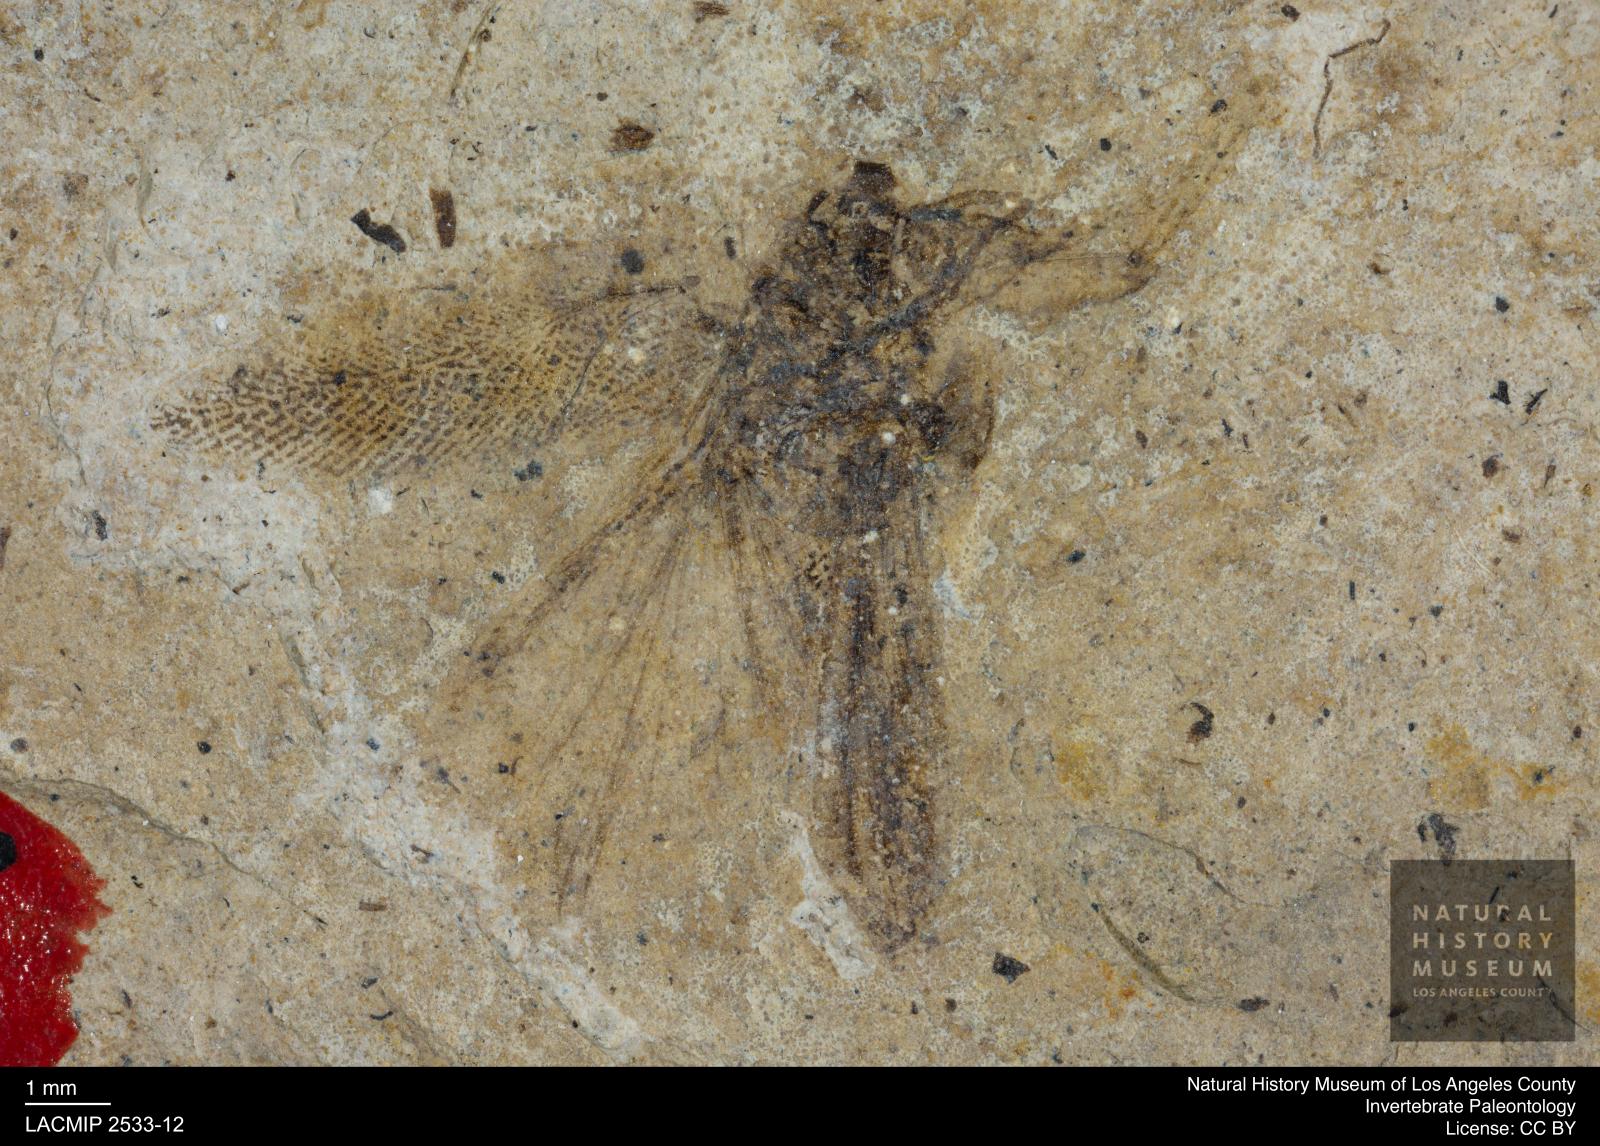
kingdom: Animalia
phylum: Arthropoda
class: Insecta
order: Blattodea
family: Ectobiidae
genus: Ectobius
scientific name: Ectobius glabellus
